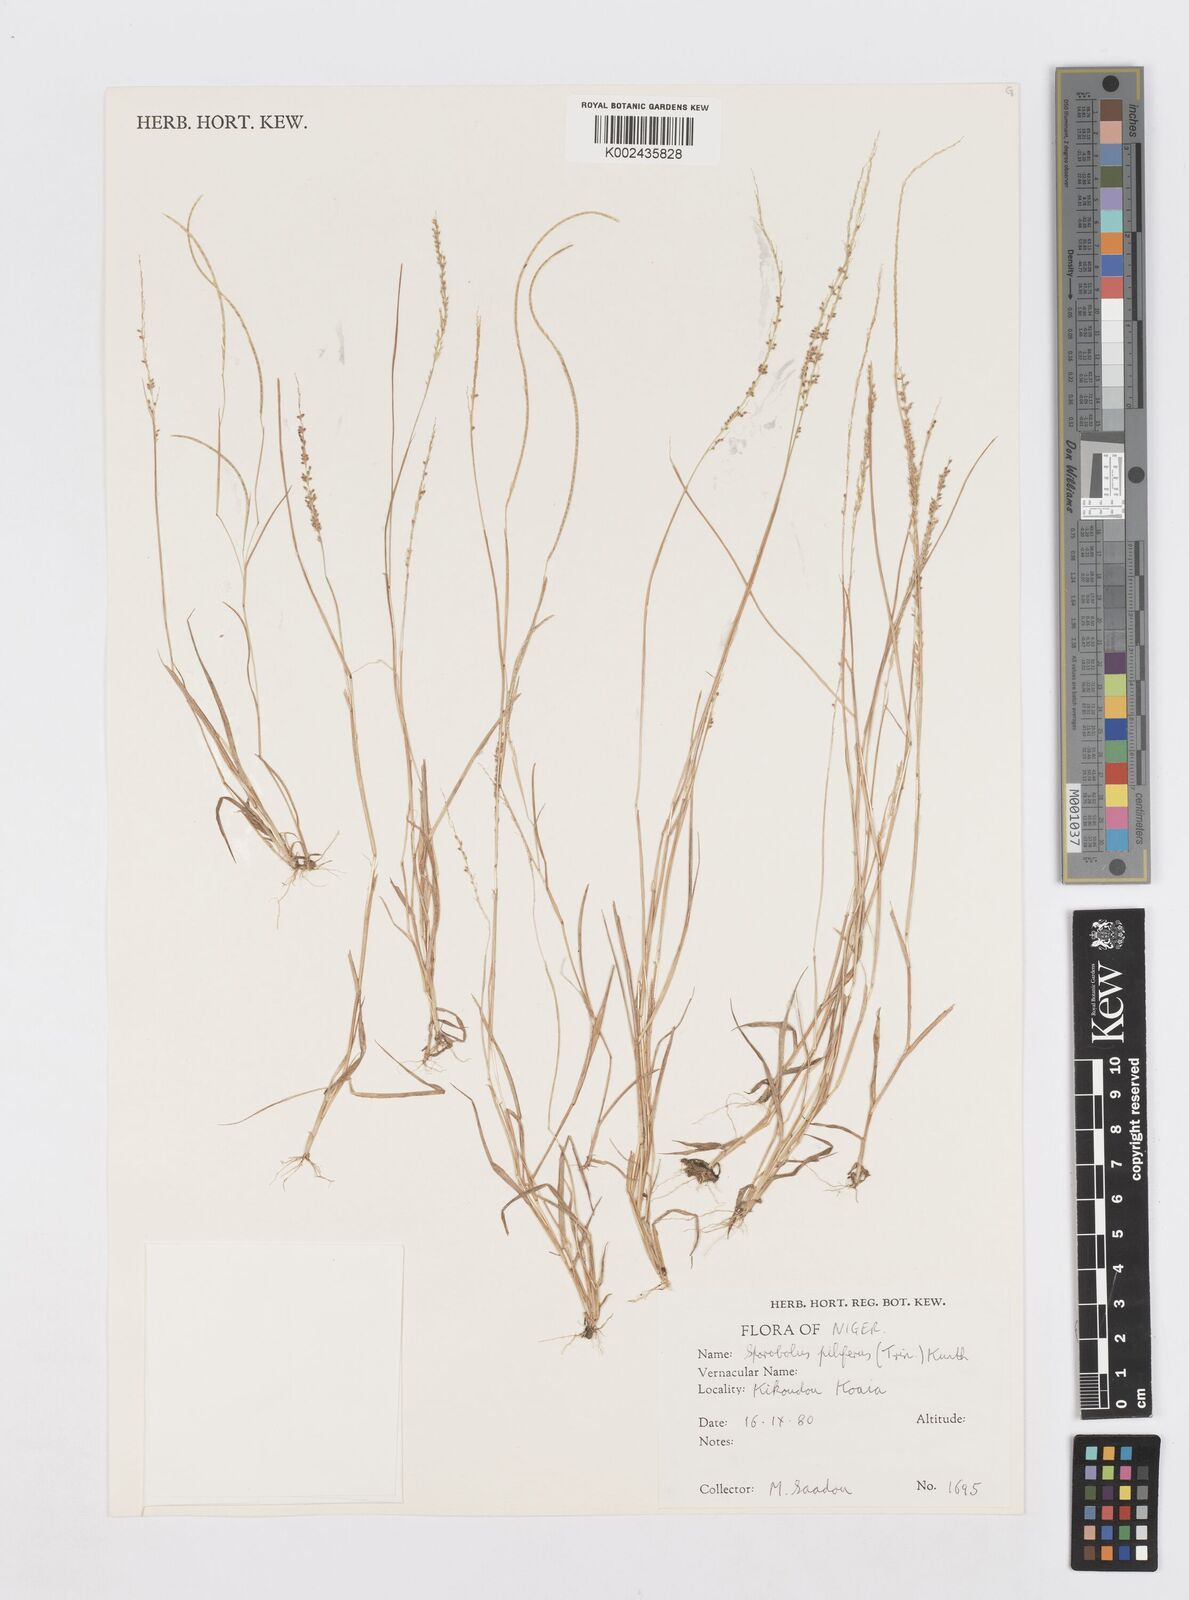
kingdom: Plantae
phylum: Tracheophyta
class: Liliopsida
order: Poales
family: Poaceae
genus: Sporobolus
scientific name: Sporobolus pilifer
